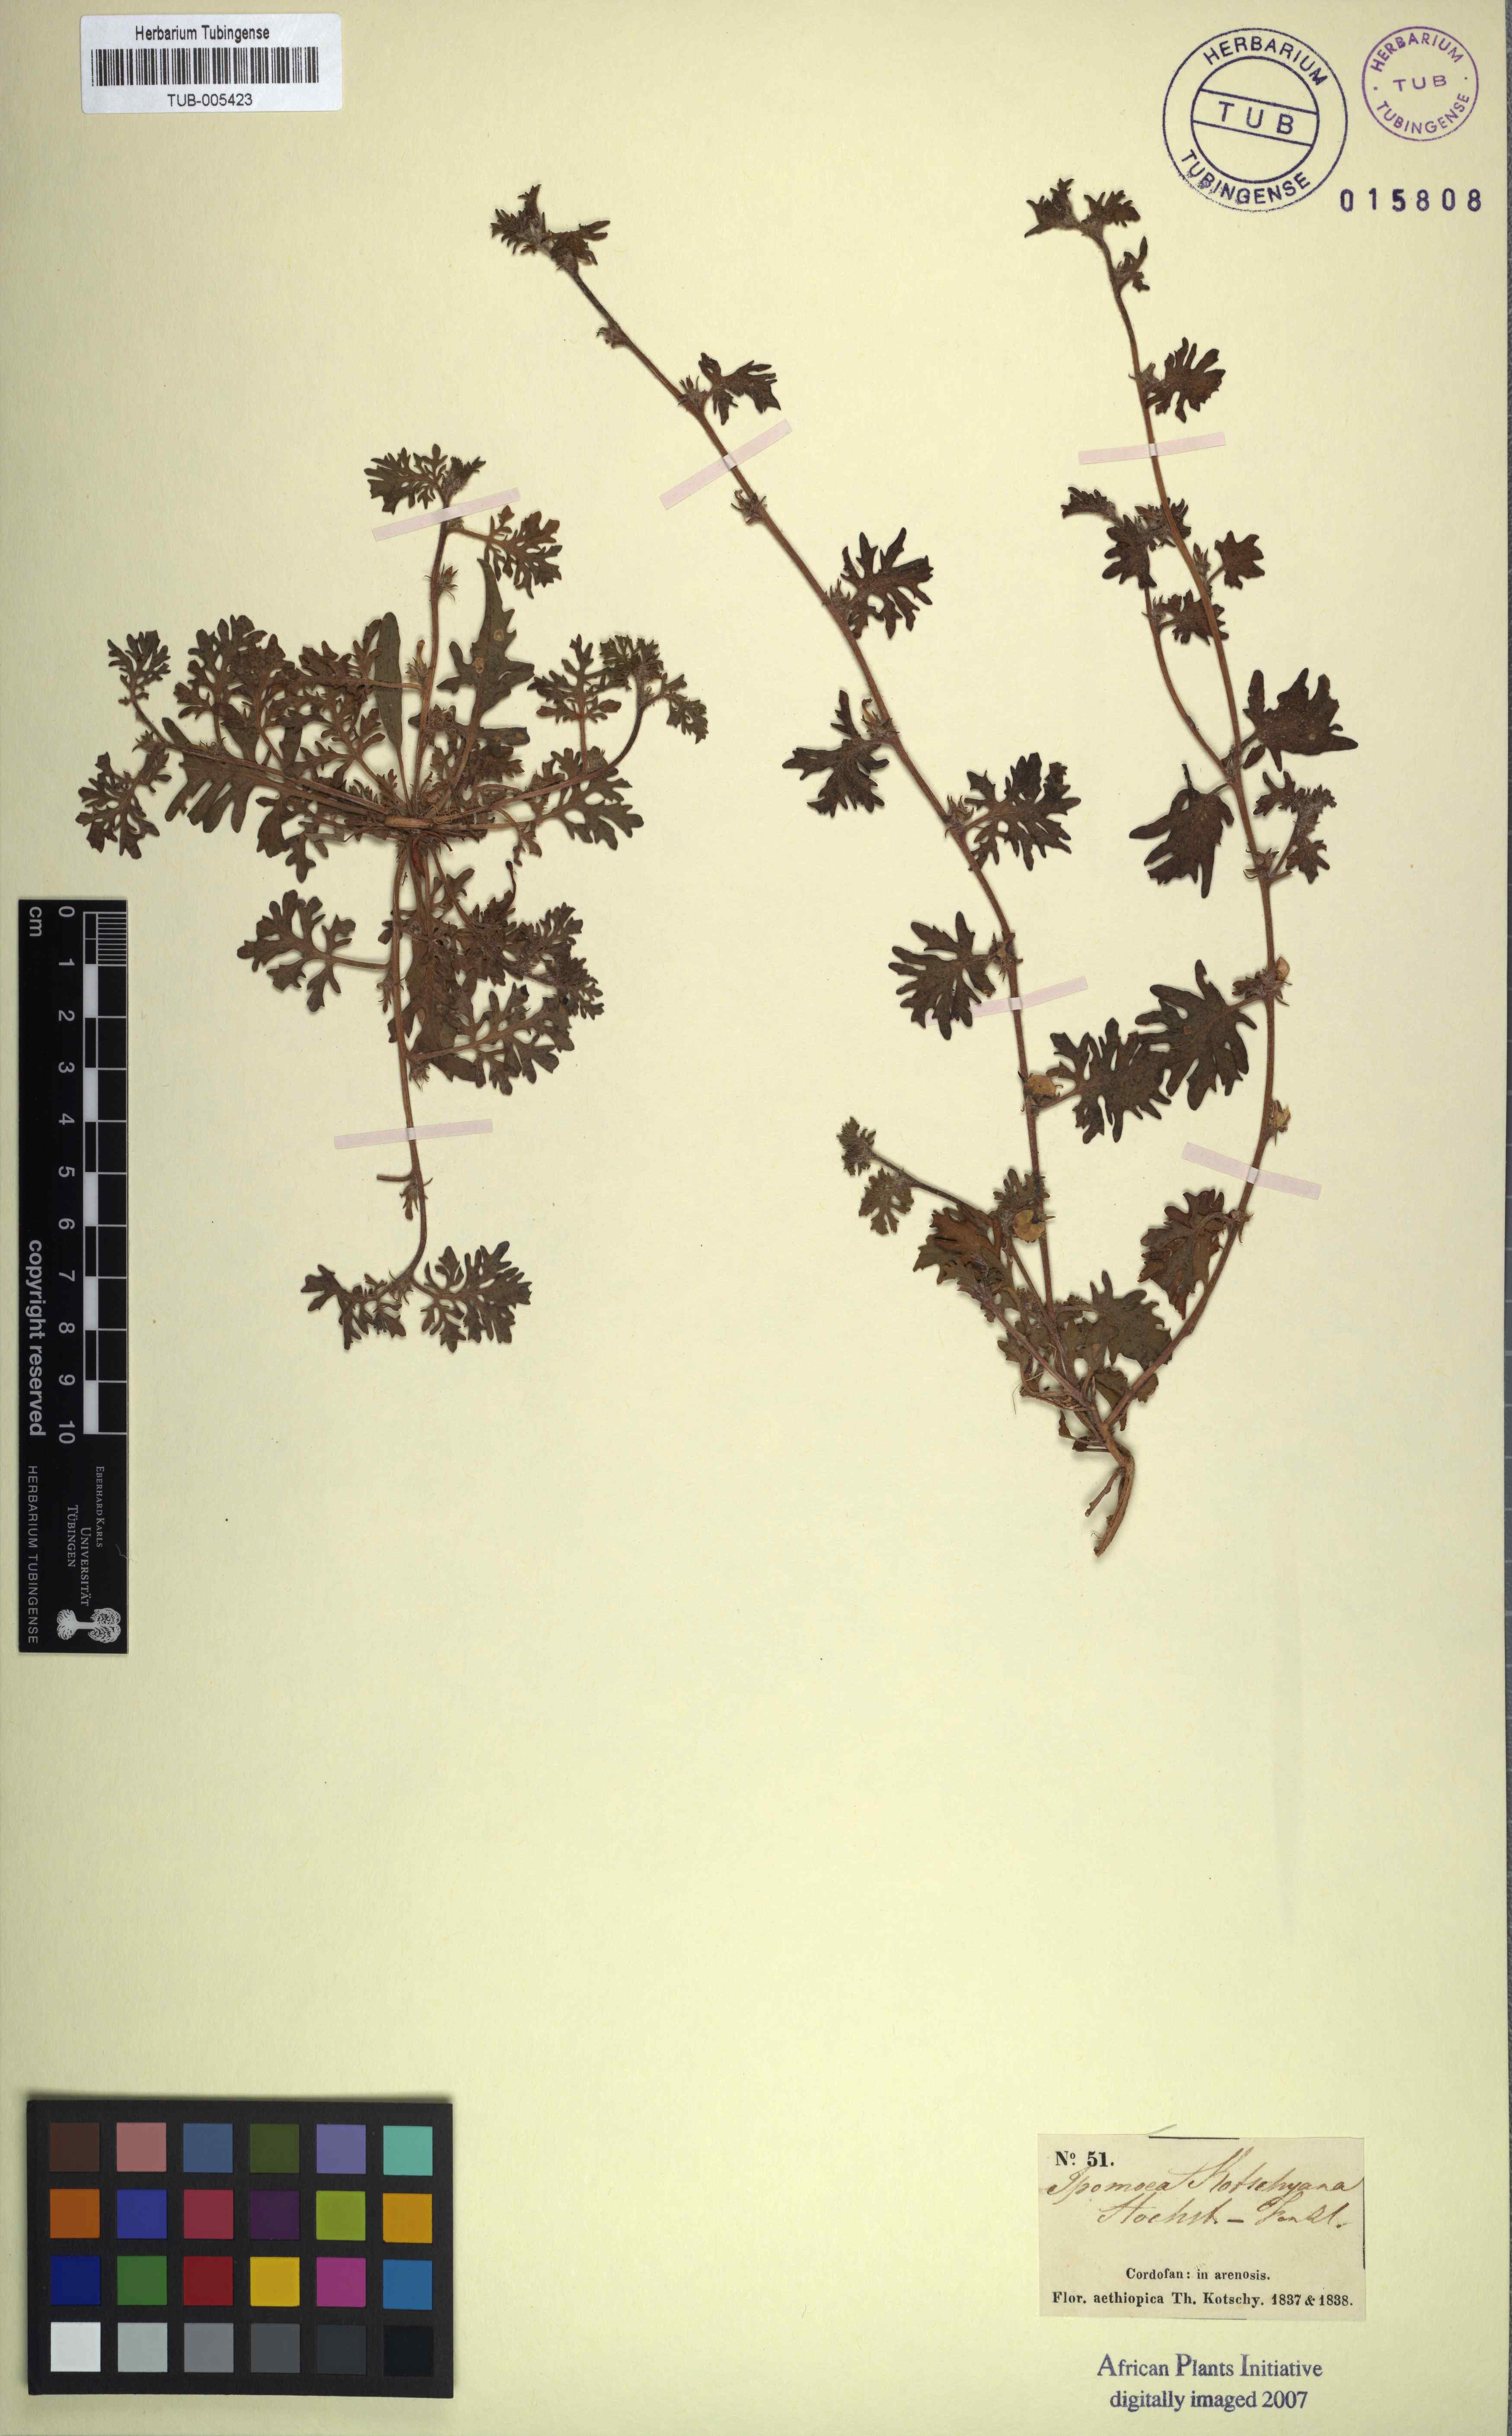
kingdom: Plantae
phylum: Tracheophyta
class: Magnoliopsida
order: Solanales
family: Convolvulaceae
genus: Ipomoea
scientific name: Ipomoea kotschyana
